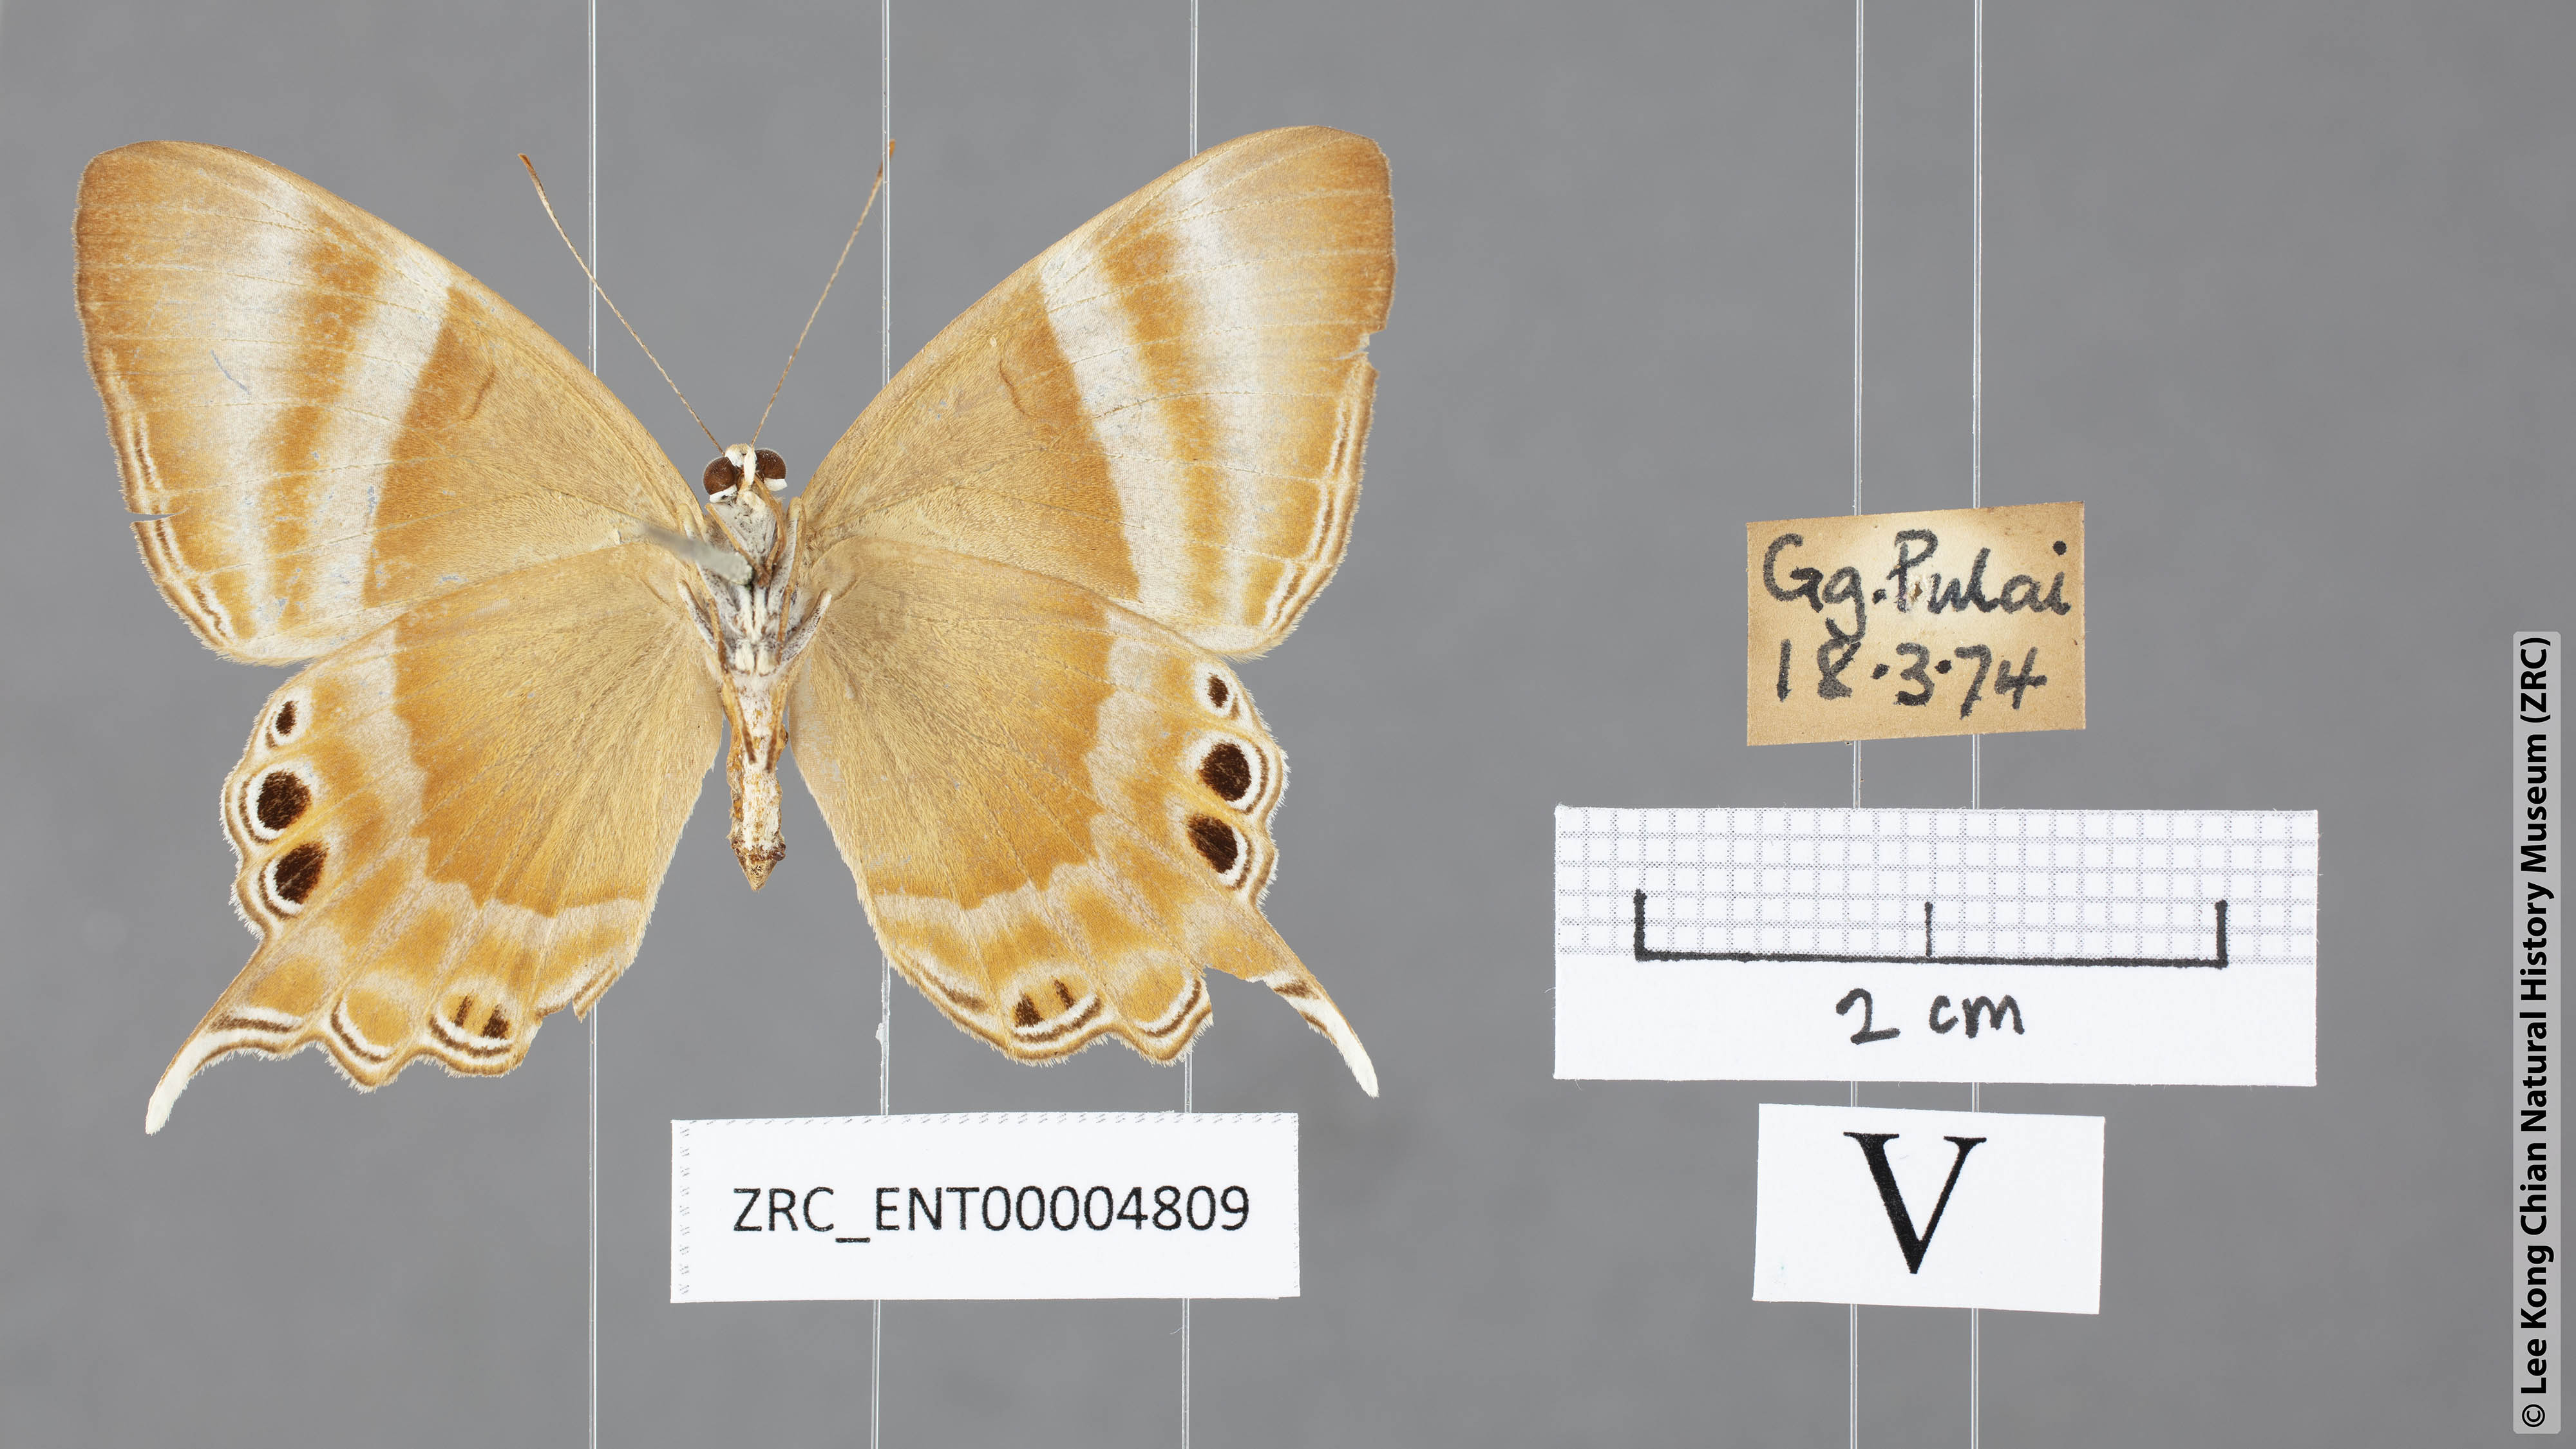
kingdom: Animalia
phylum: Arthropoda
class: Insecta
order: Lepidoptera
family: Riodinidae
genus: Archigenes
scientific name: Archigenes savitri
